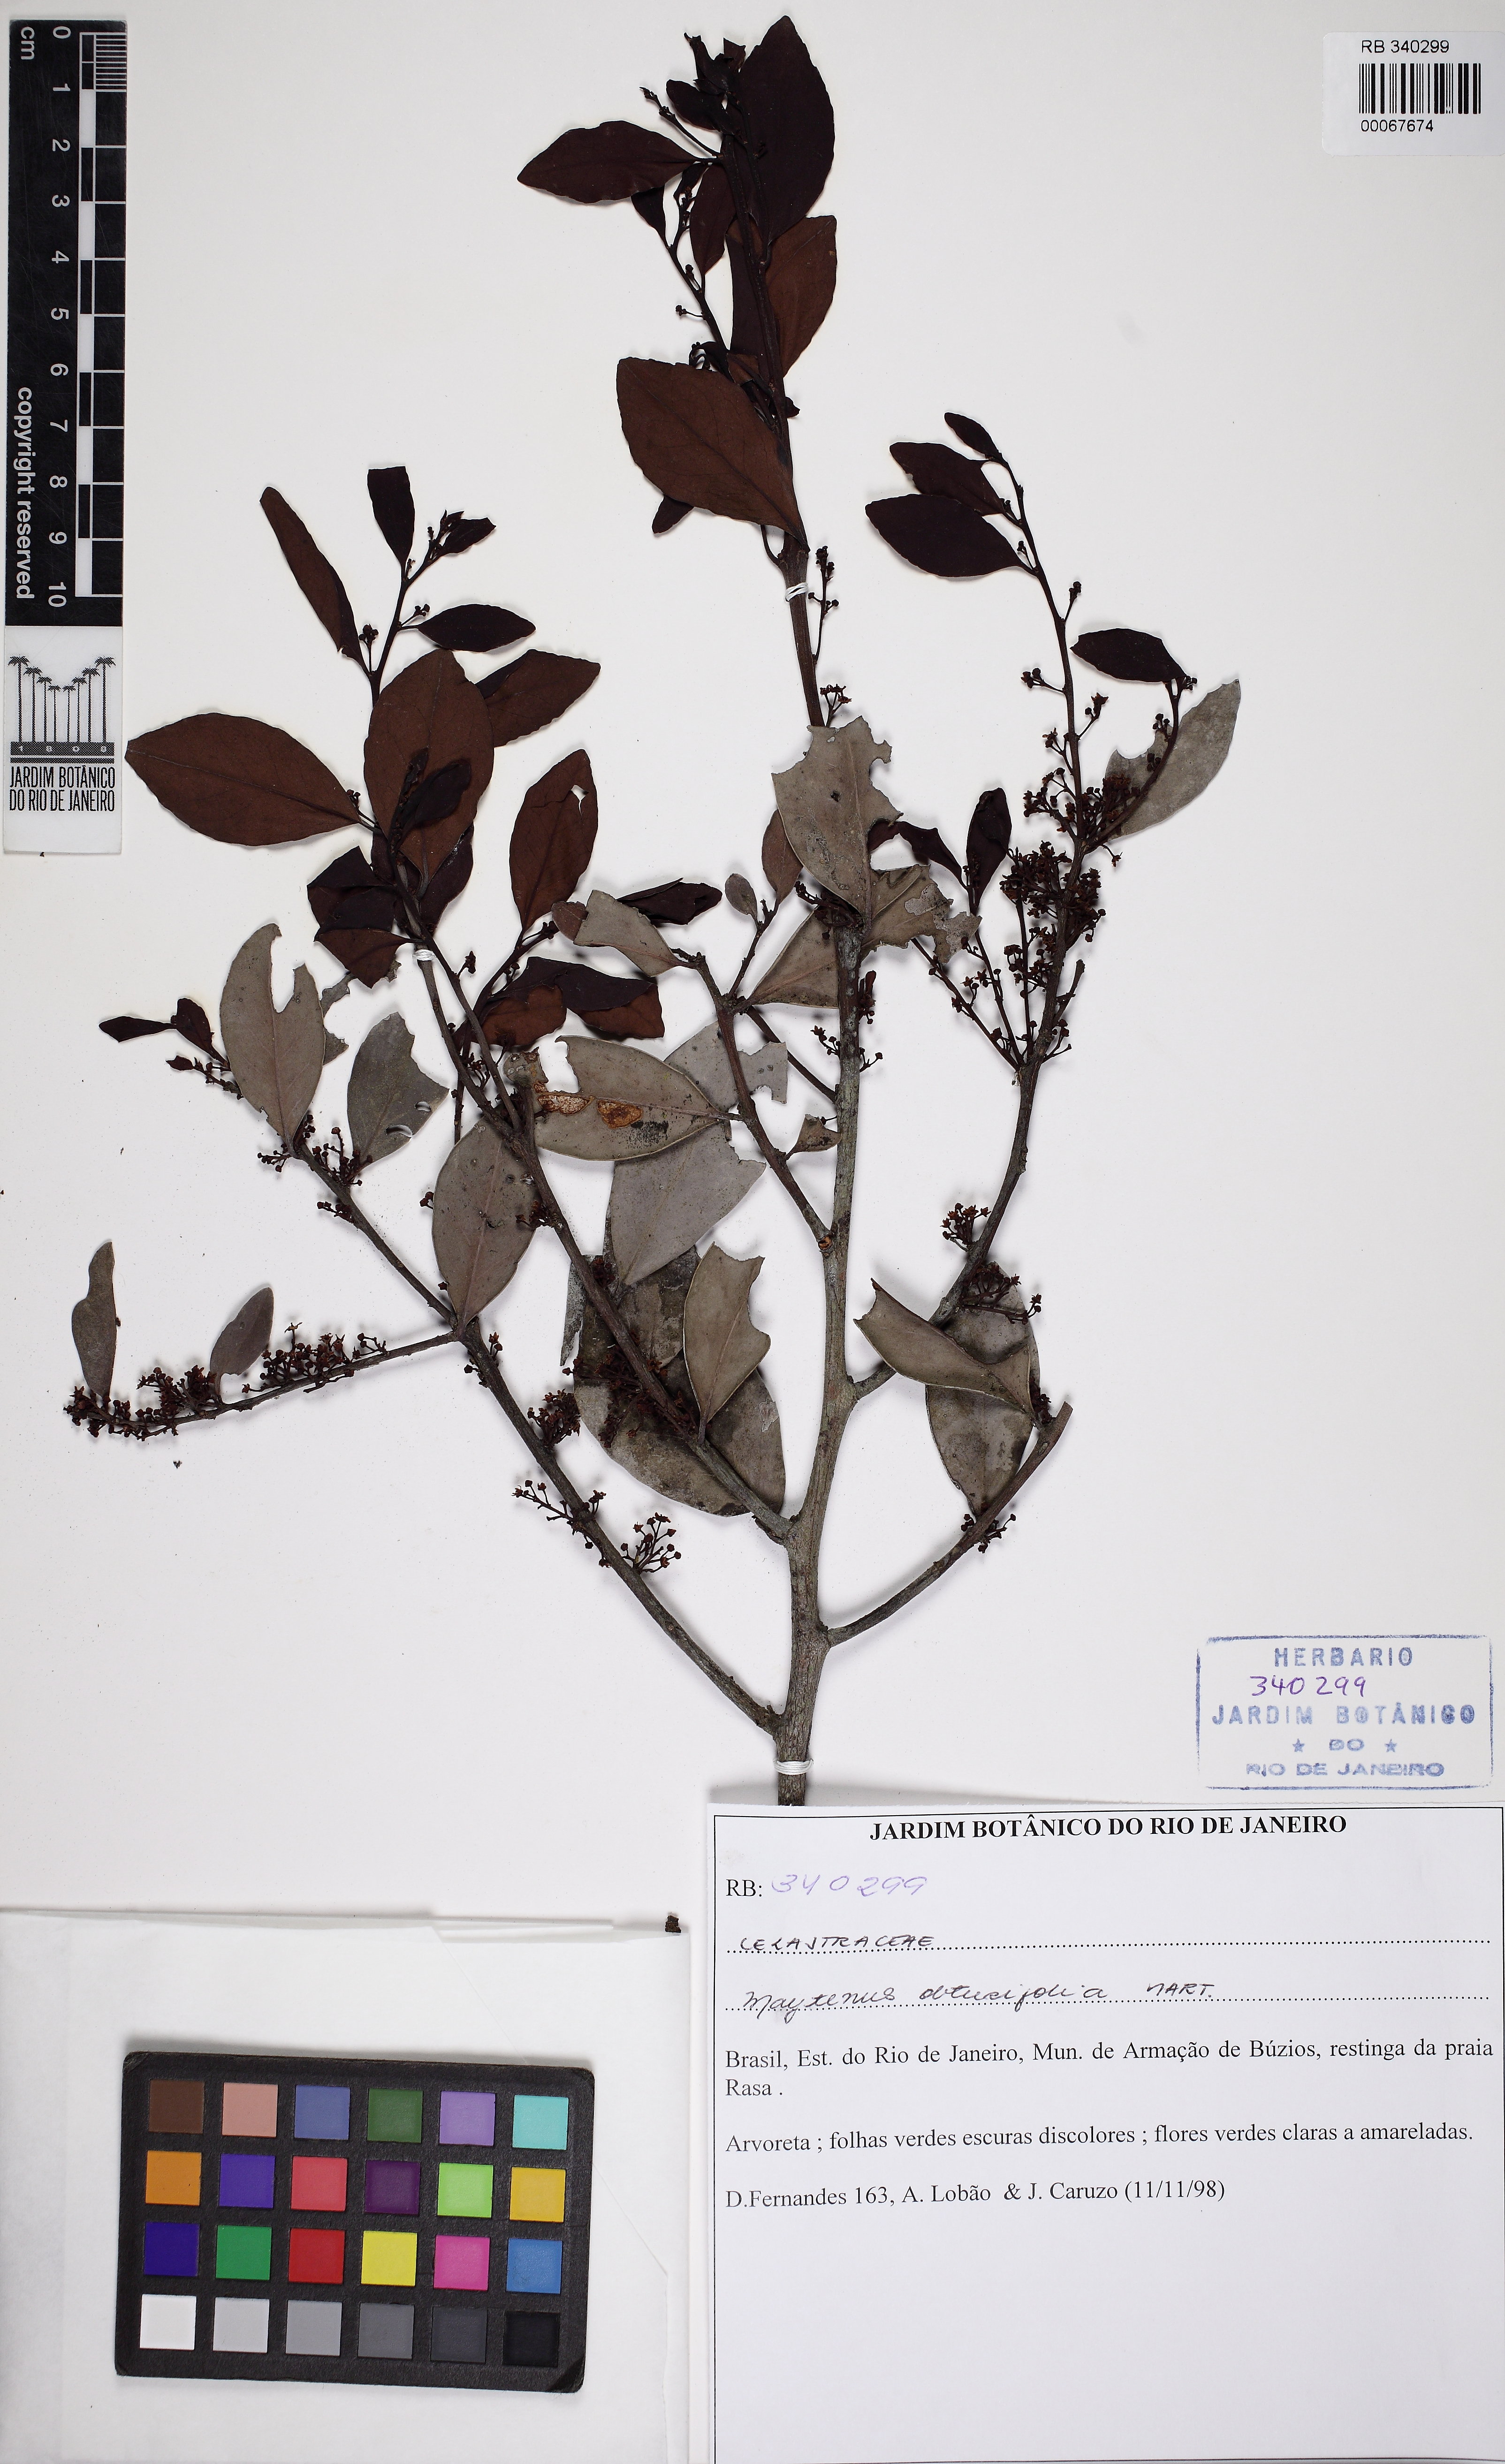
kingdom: Plantae
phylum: Tracheophyta
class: Magnoliopsida
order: Celastrales
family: Celastraceae
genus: Monteverdia
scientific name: Monteverdia obtusifolia
